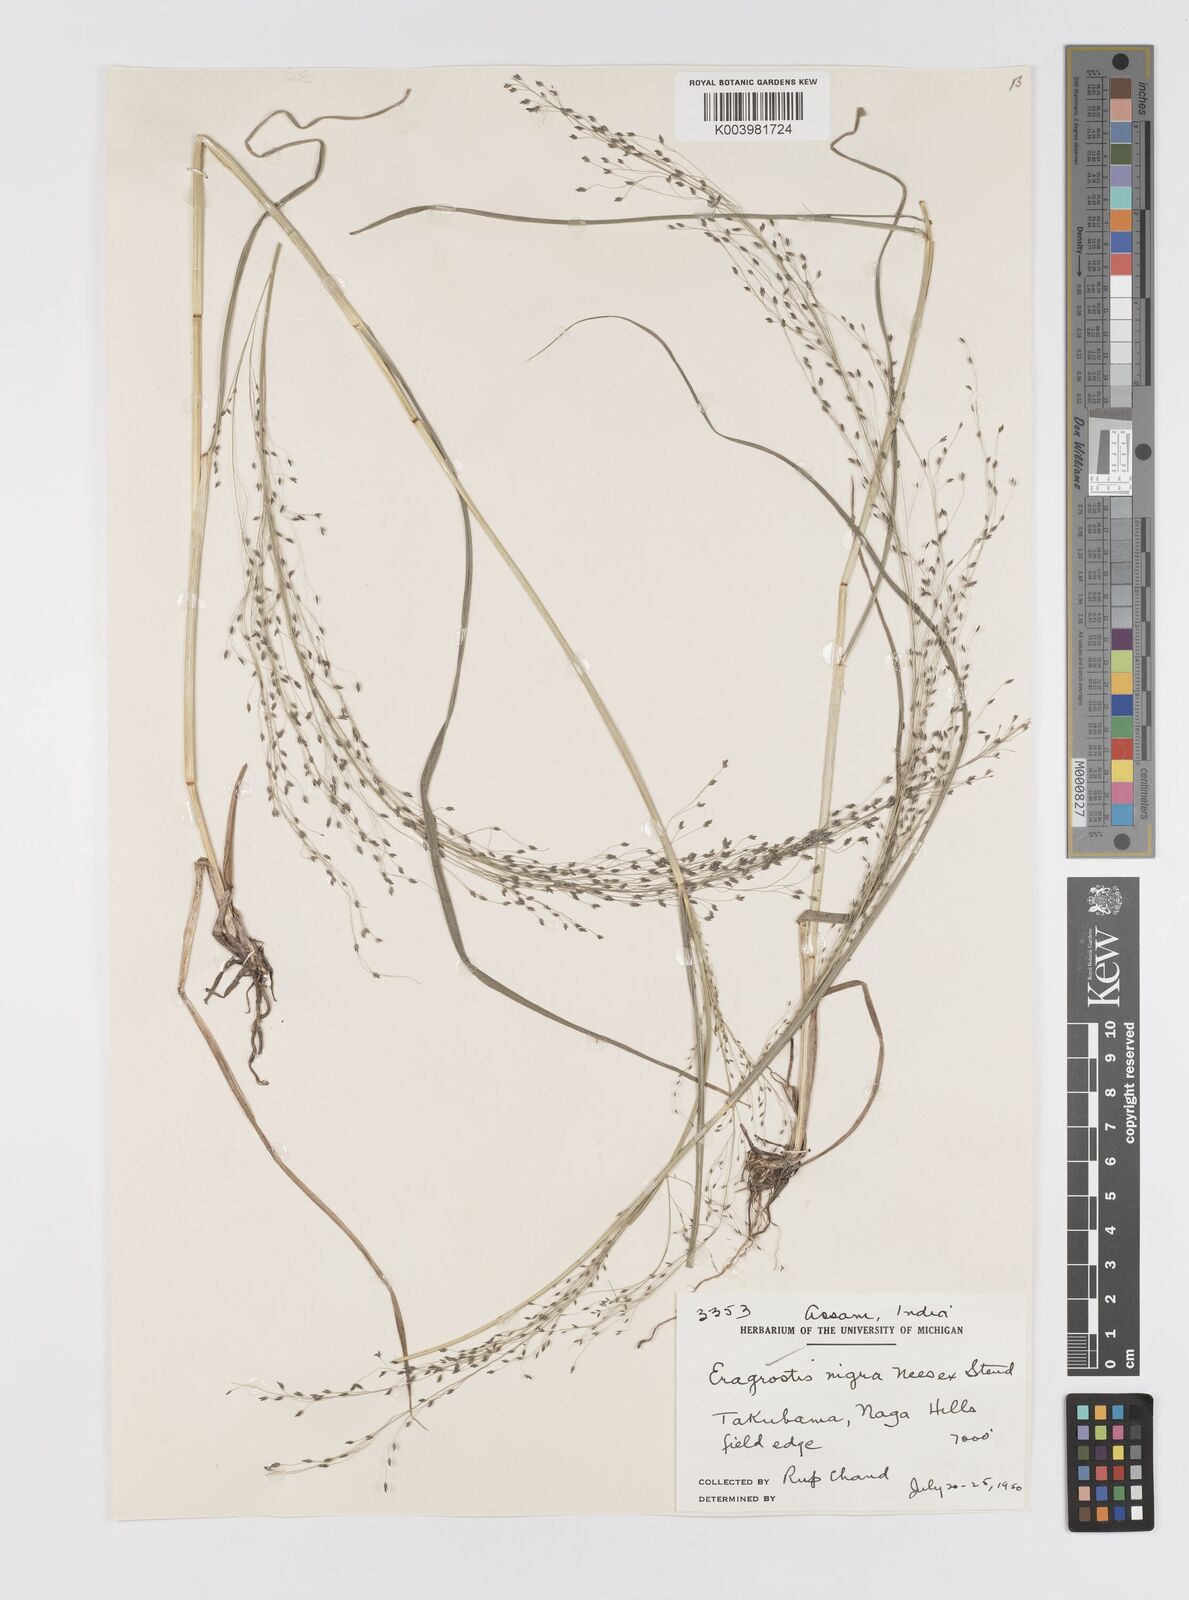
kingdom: Plantae
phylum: Tracheophyta
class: Liliopsida
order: Poales
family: Poaceae
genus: Eragrostis
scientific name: Eragrostis nigra
